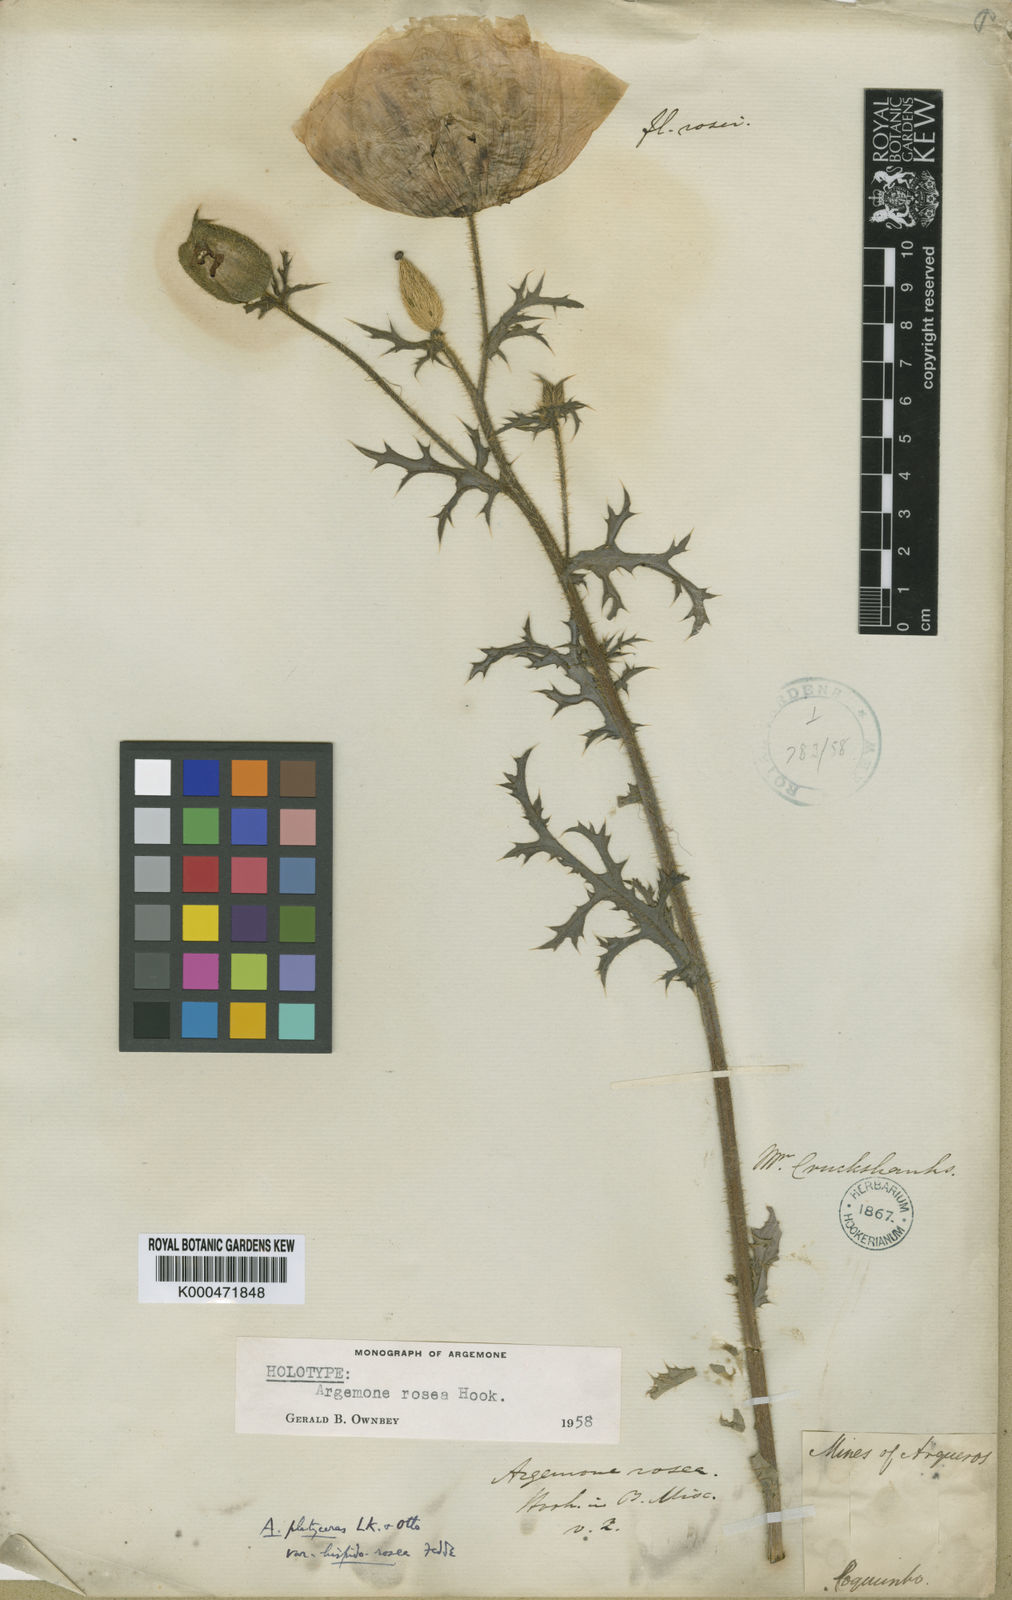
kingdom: Plantae
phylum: Tracheophyta
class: Magnoliopsida
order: Ranunculales
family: Papaveraceae
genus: Argemone
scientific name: Argemone rosea
